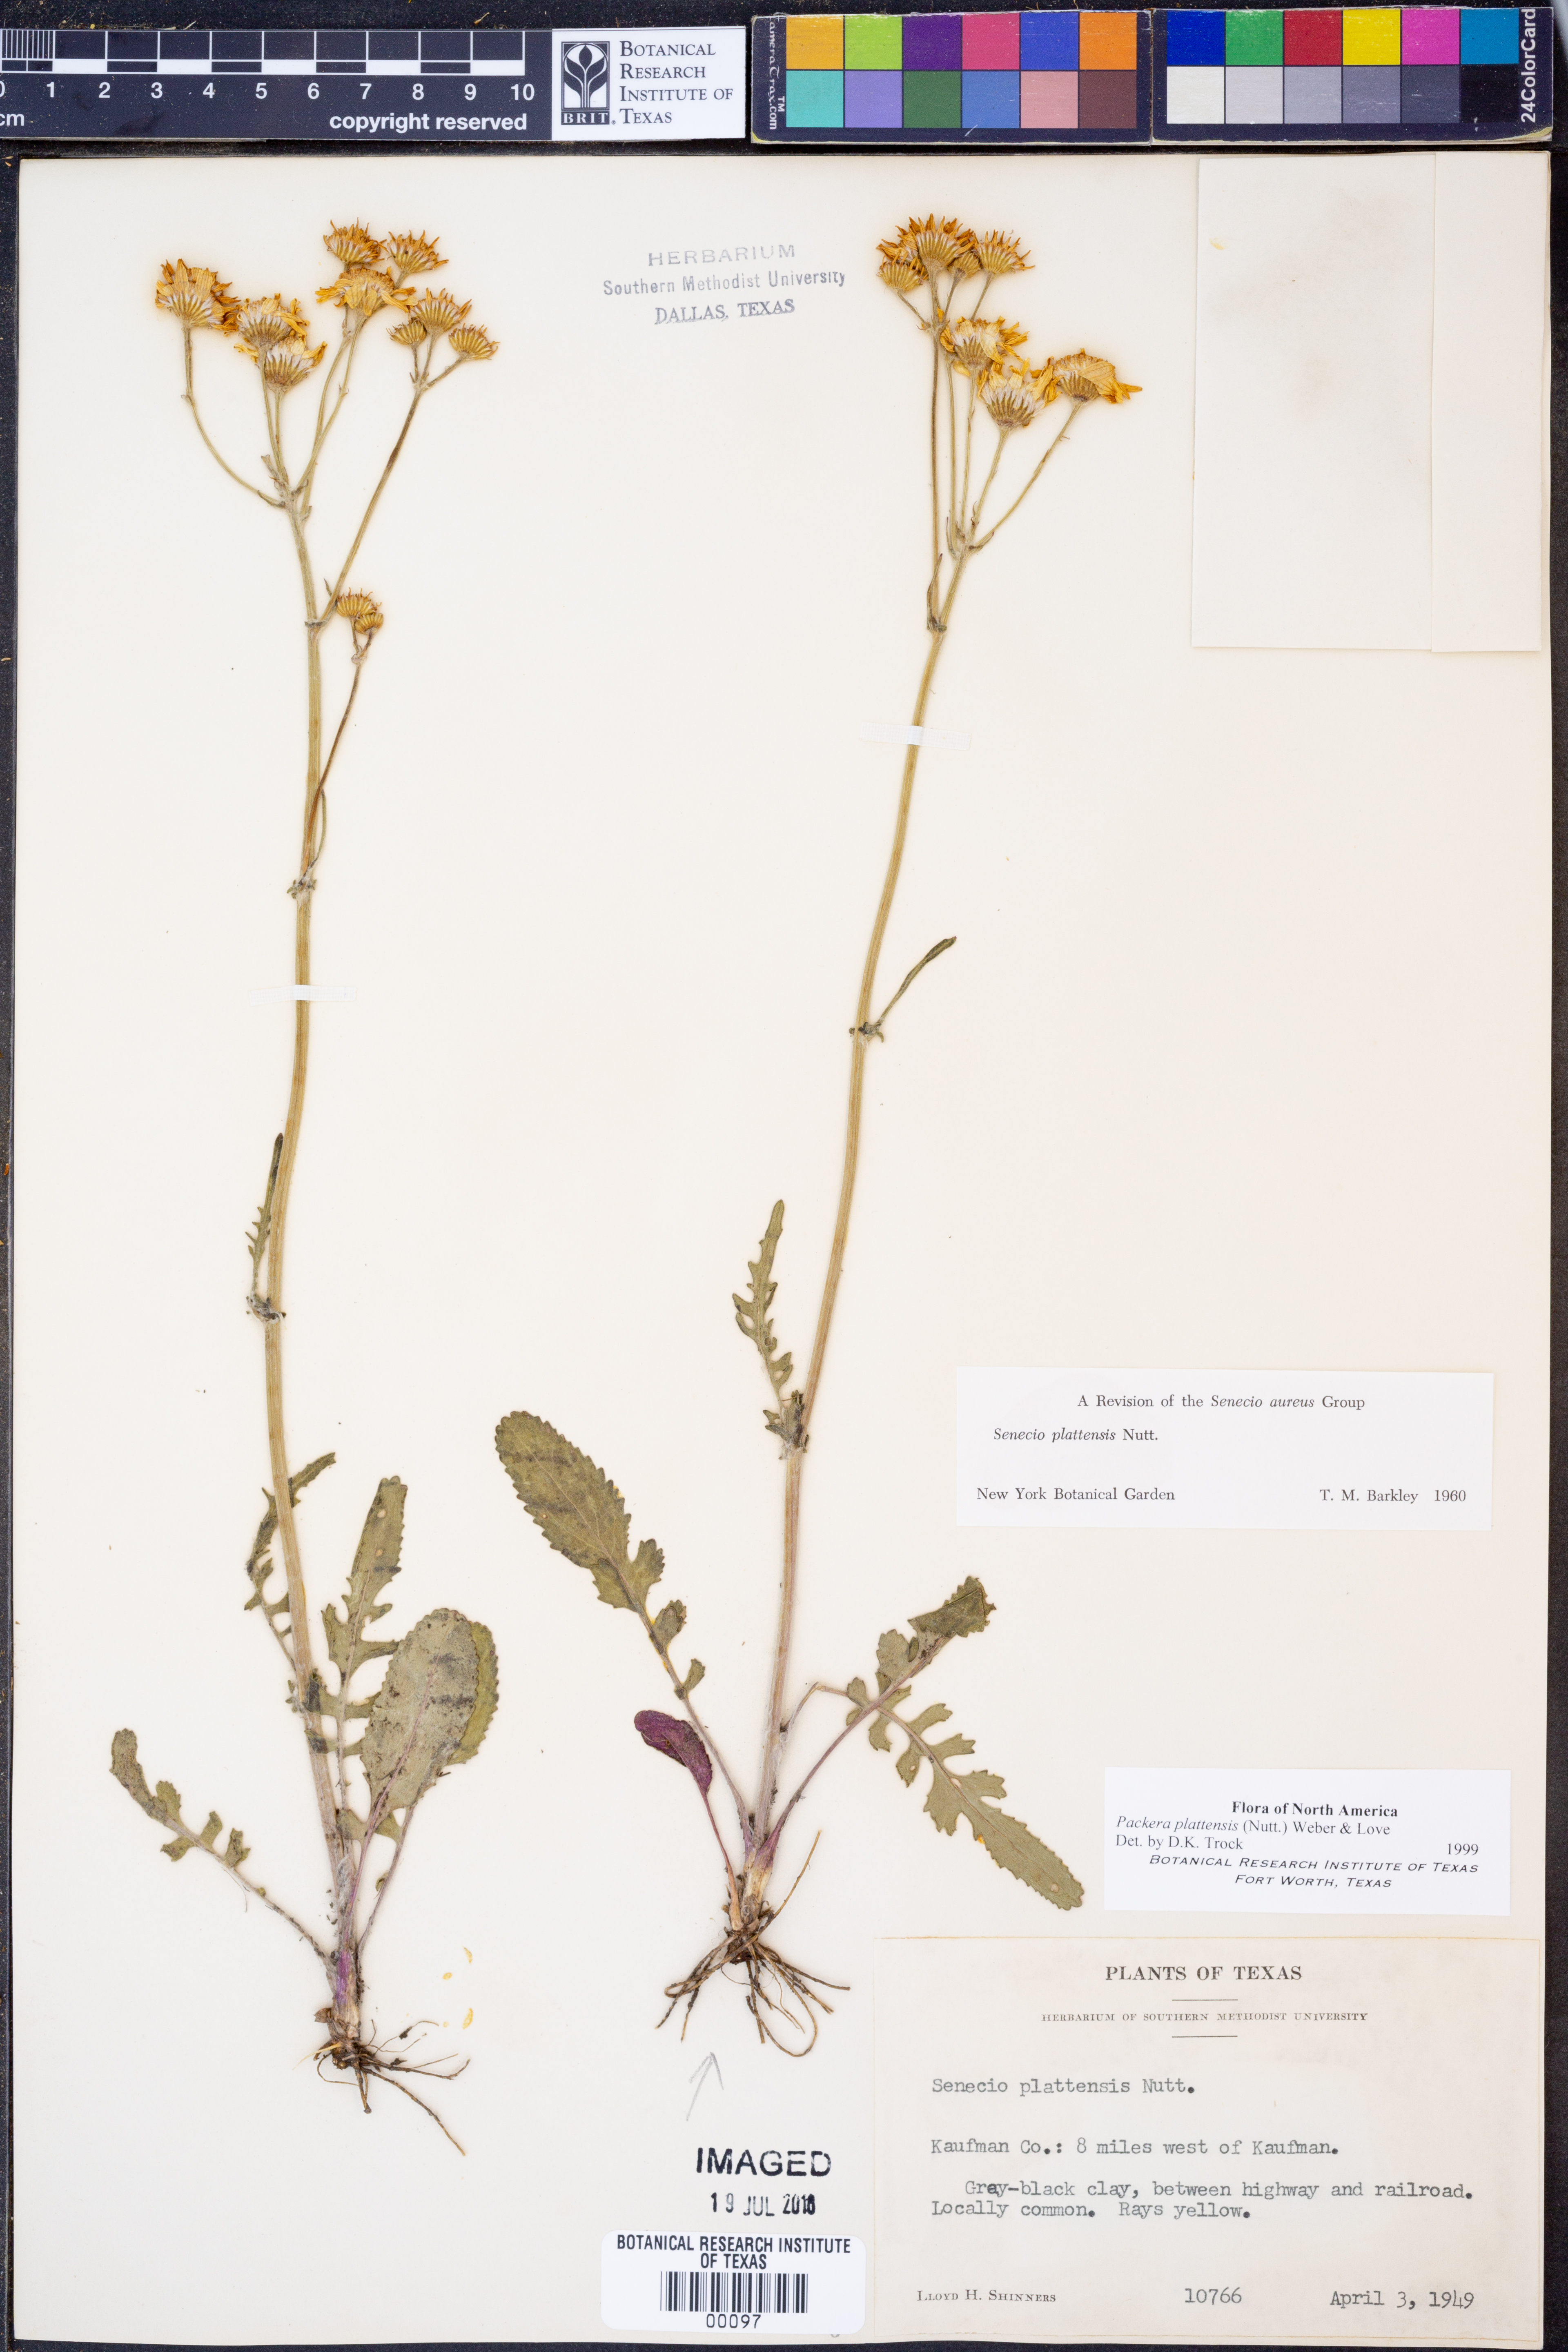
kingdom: Plantae
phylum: Tracheophyta
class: Magnoliopsida
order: Asterales
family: Asteraceae
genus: Packera
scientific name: Packera plattensis
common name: Prairie groundsel
